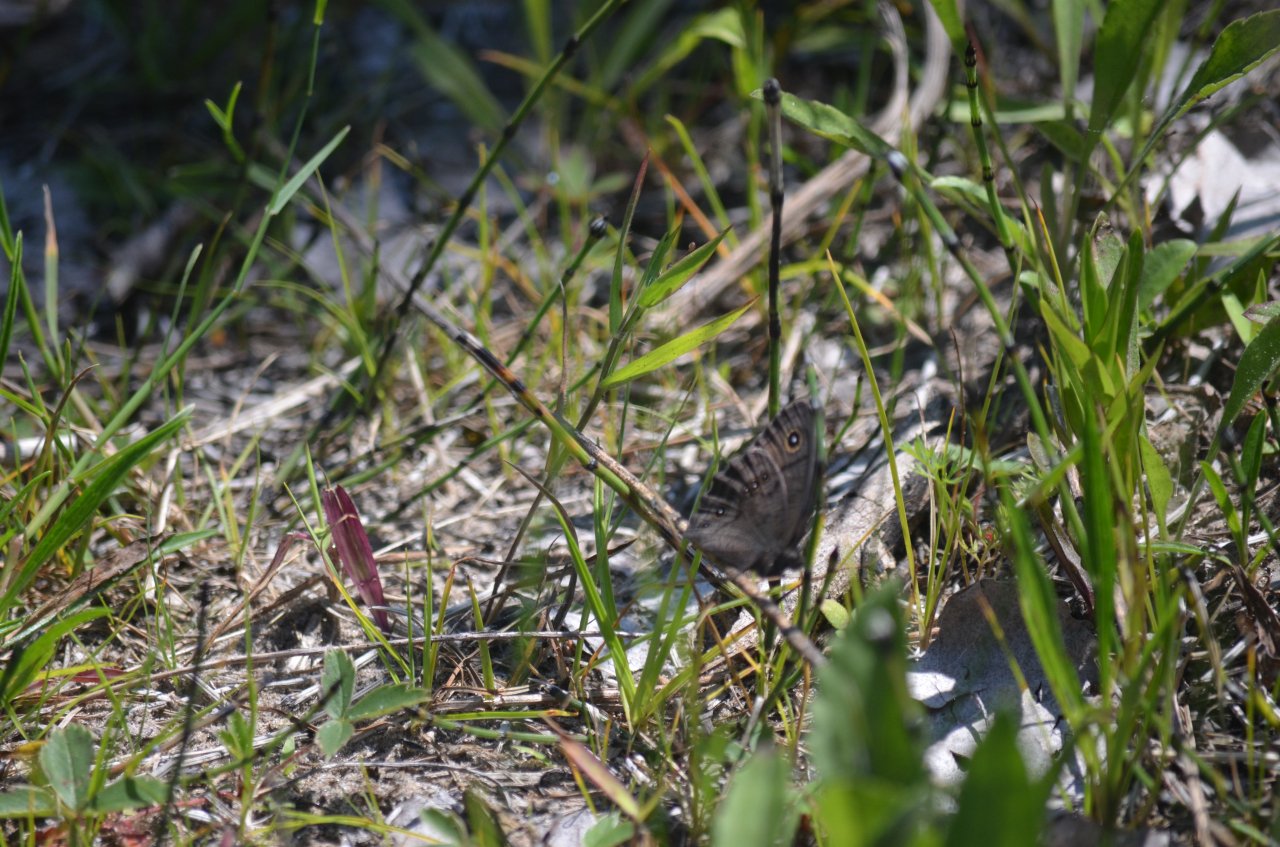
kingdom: Animalia
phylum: Arthropoda
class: Insecta
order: Lepidoptera
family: Nymphalidae
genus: Cercyonis
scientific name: Cercyonis pegala
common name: Common Wood-Nymph
